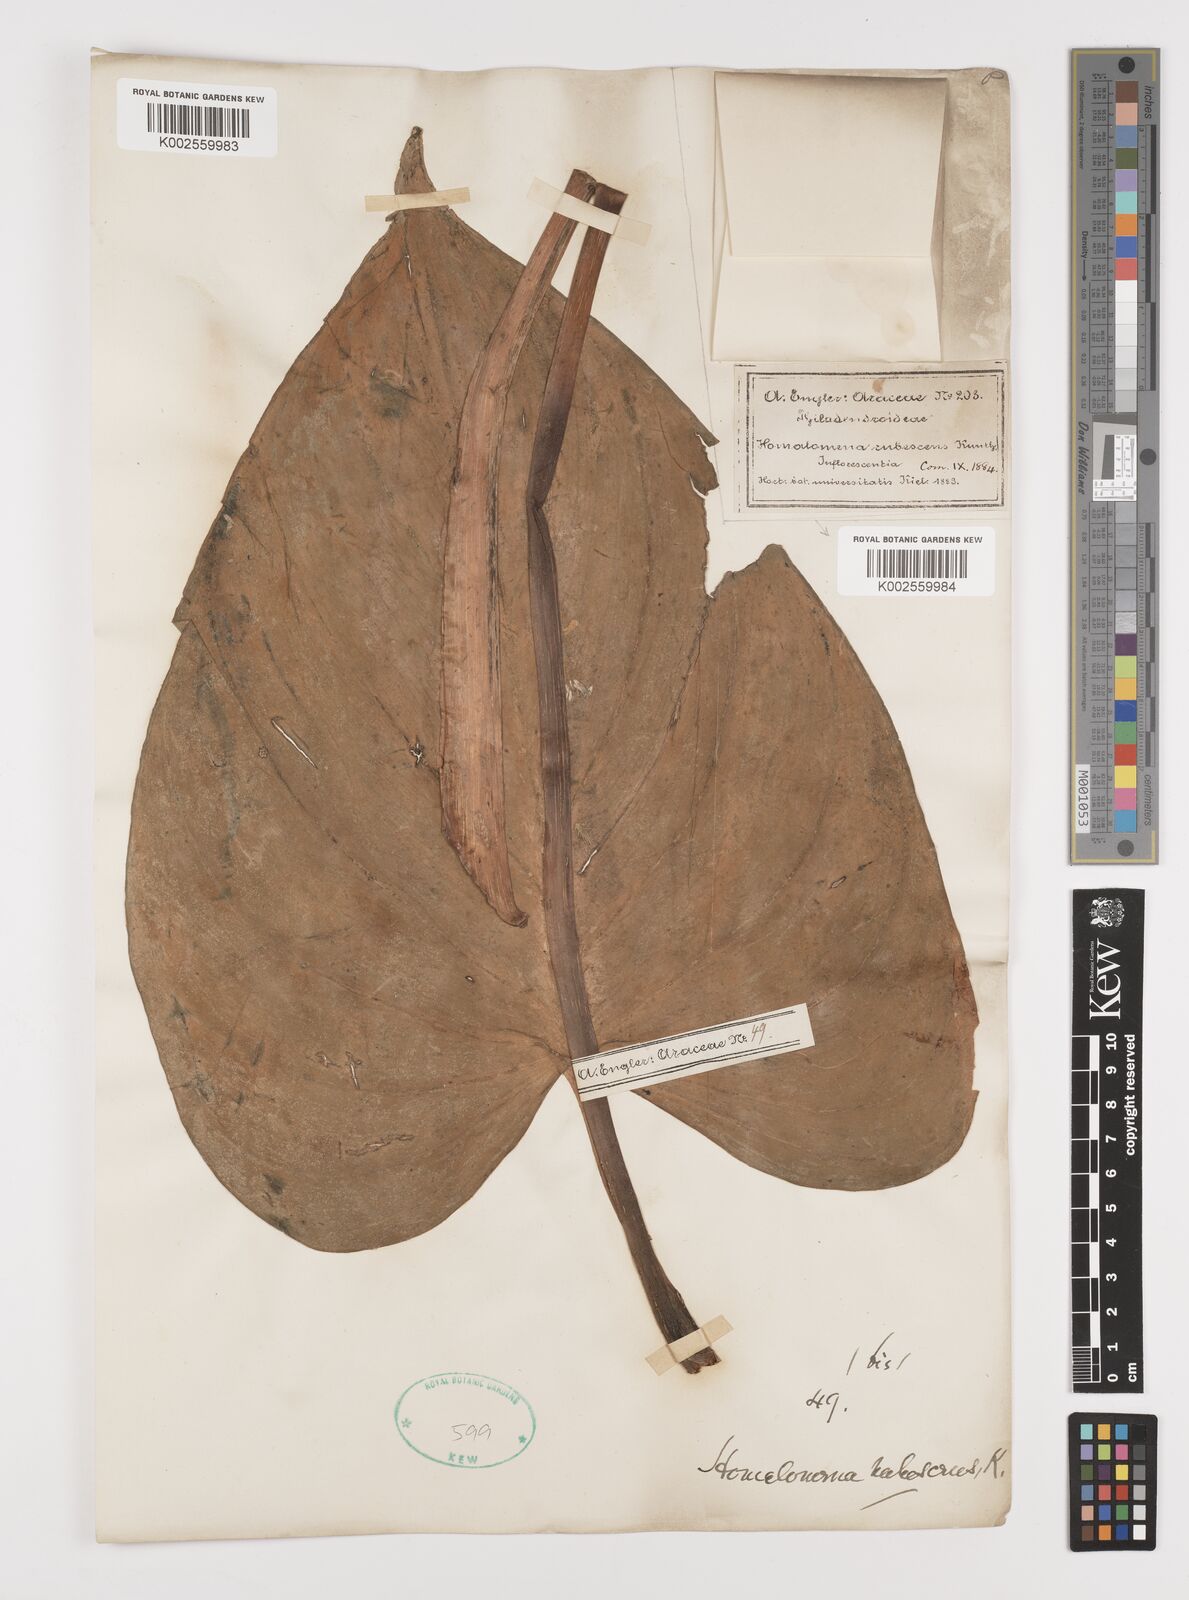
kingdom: Plantae
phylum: Tracheophyta
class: Liliopsida
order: Alismatales
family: Araceae
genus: Homalomena
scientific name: Homalomena rubescens
